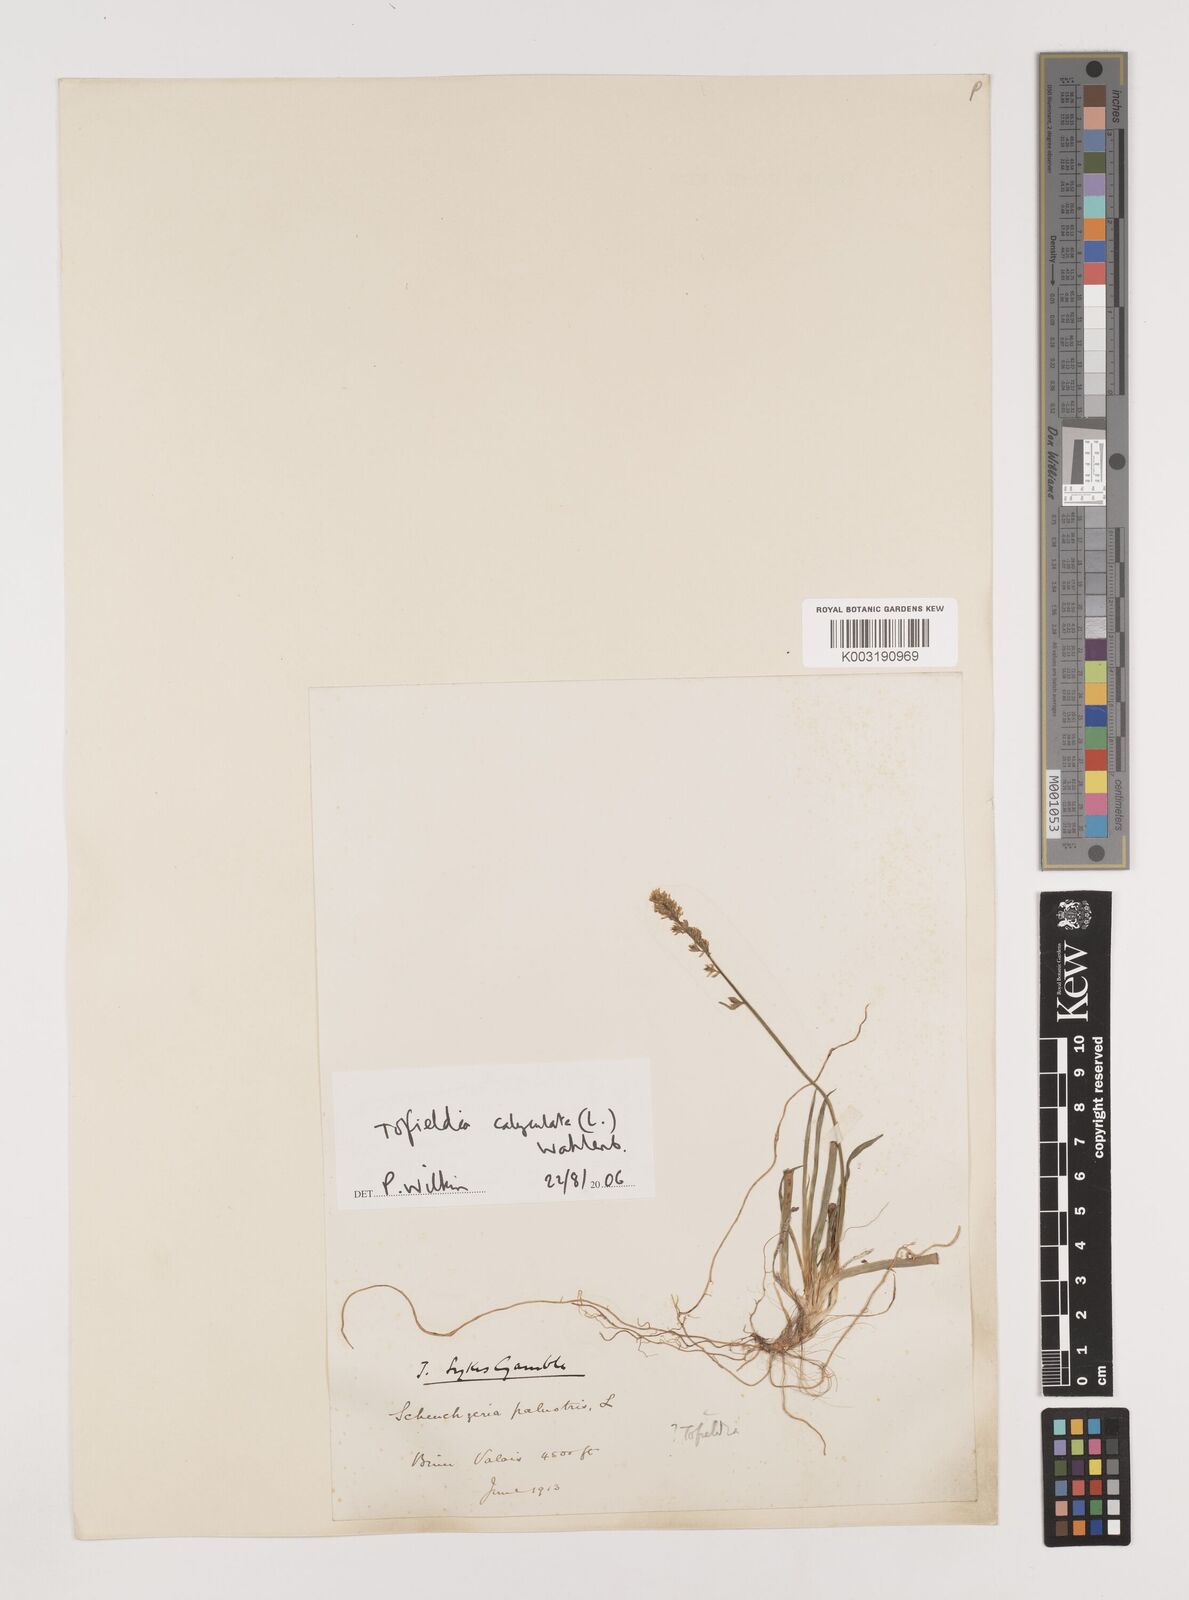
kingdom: Plantae
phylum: Tracheophyta
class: Liliopsida
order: Alismatales
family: Tofieldiaceae
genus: Tofieldia
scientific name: Tofieldia calyculata
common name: German-asphodel
